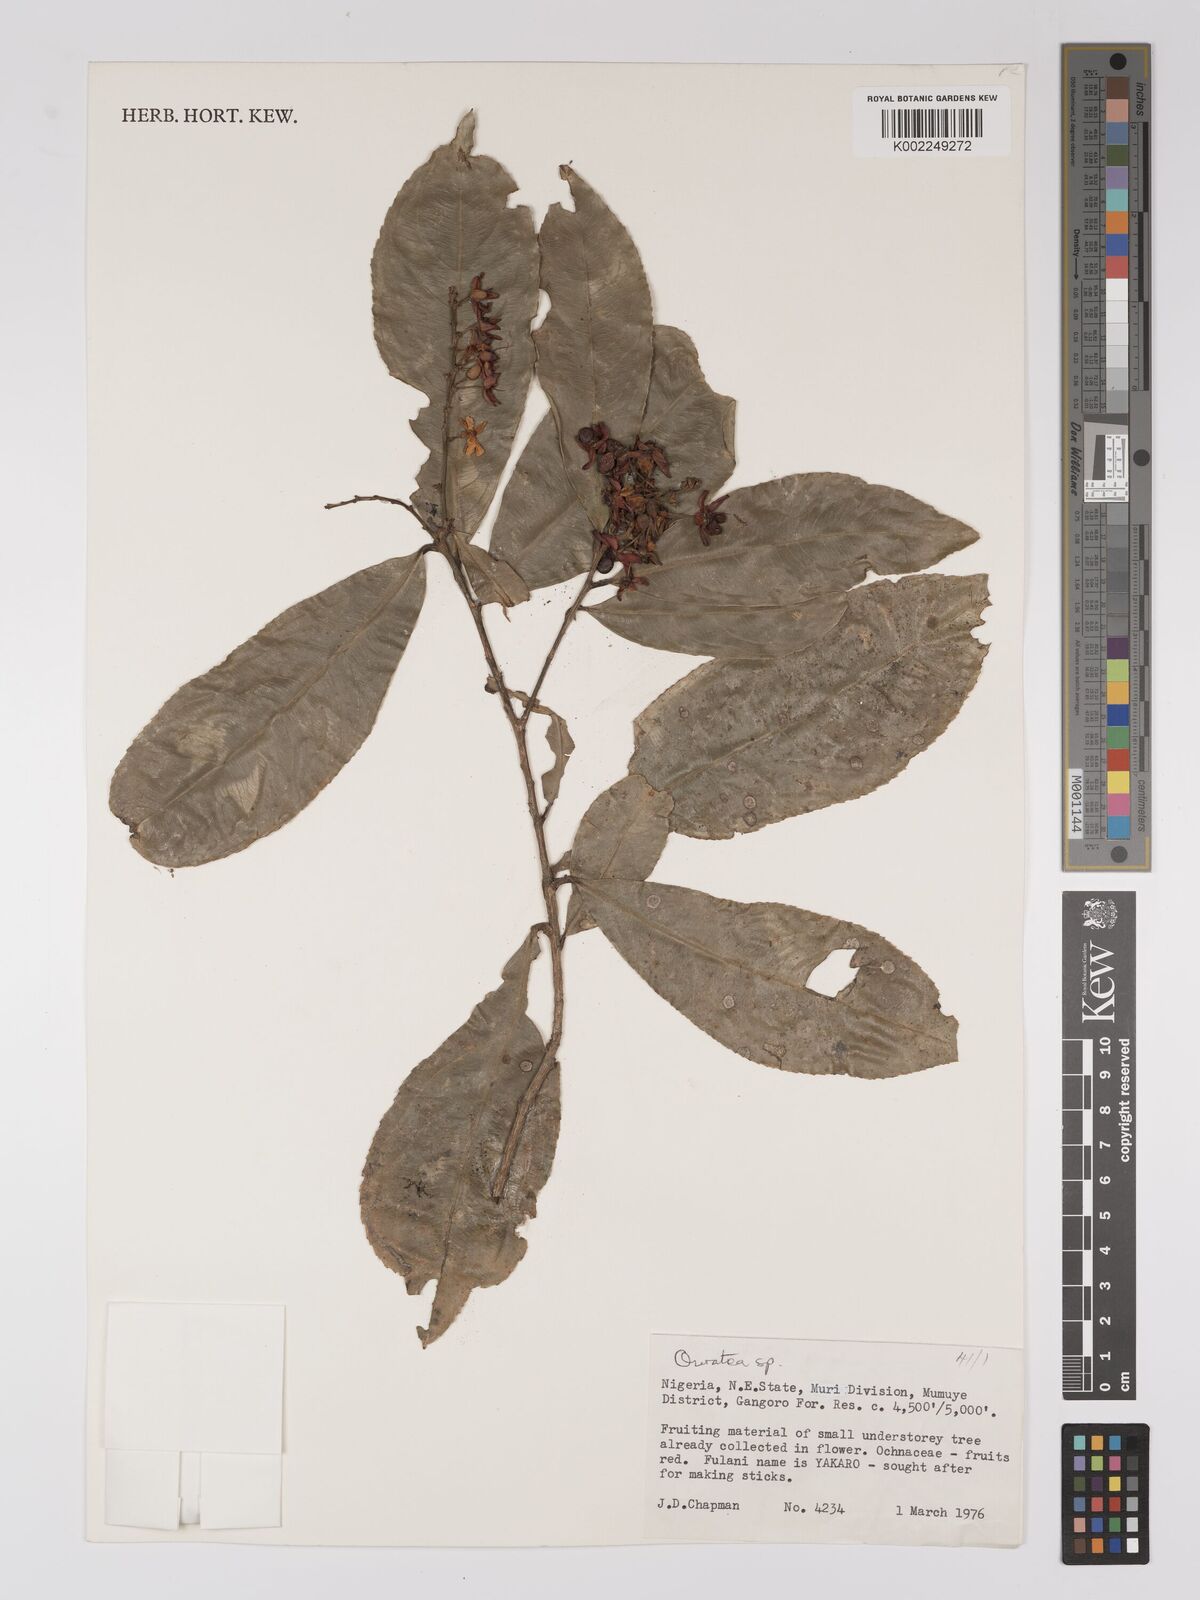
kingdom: Plantae
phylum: Tracheophyta
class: Magnoliopsida
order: Malpighiales
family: Ochnaceae
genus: Campylospermum
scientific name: Campylospermum
